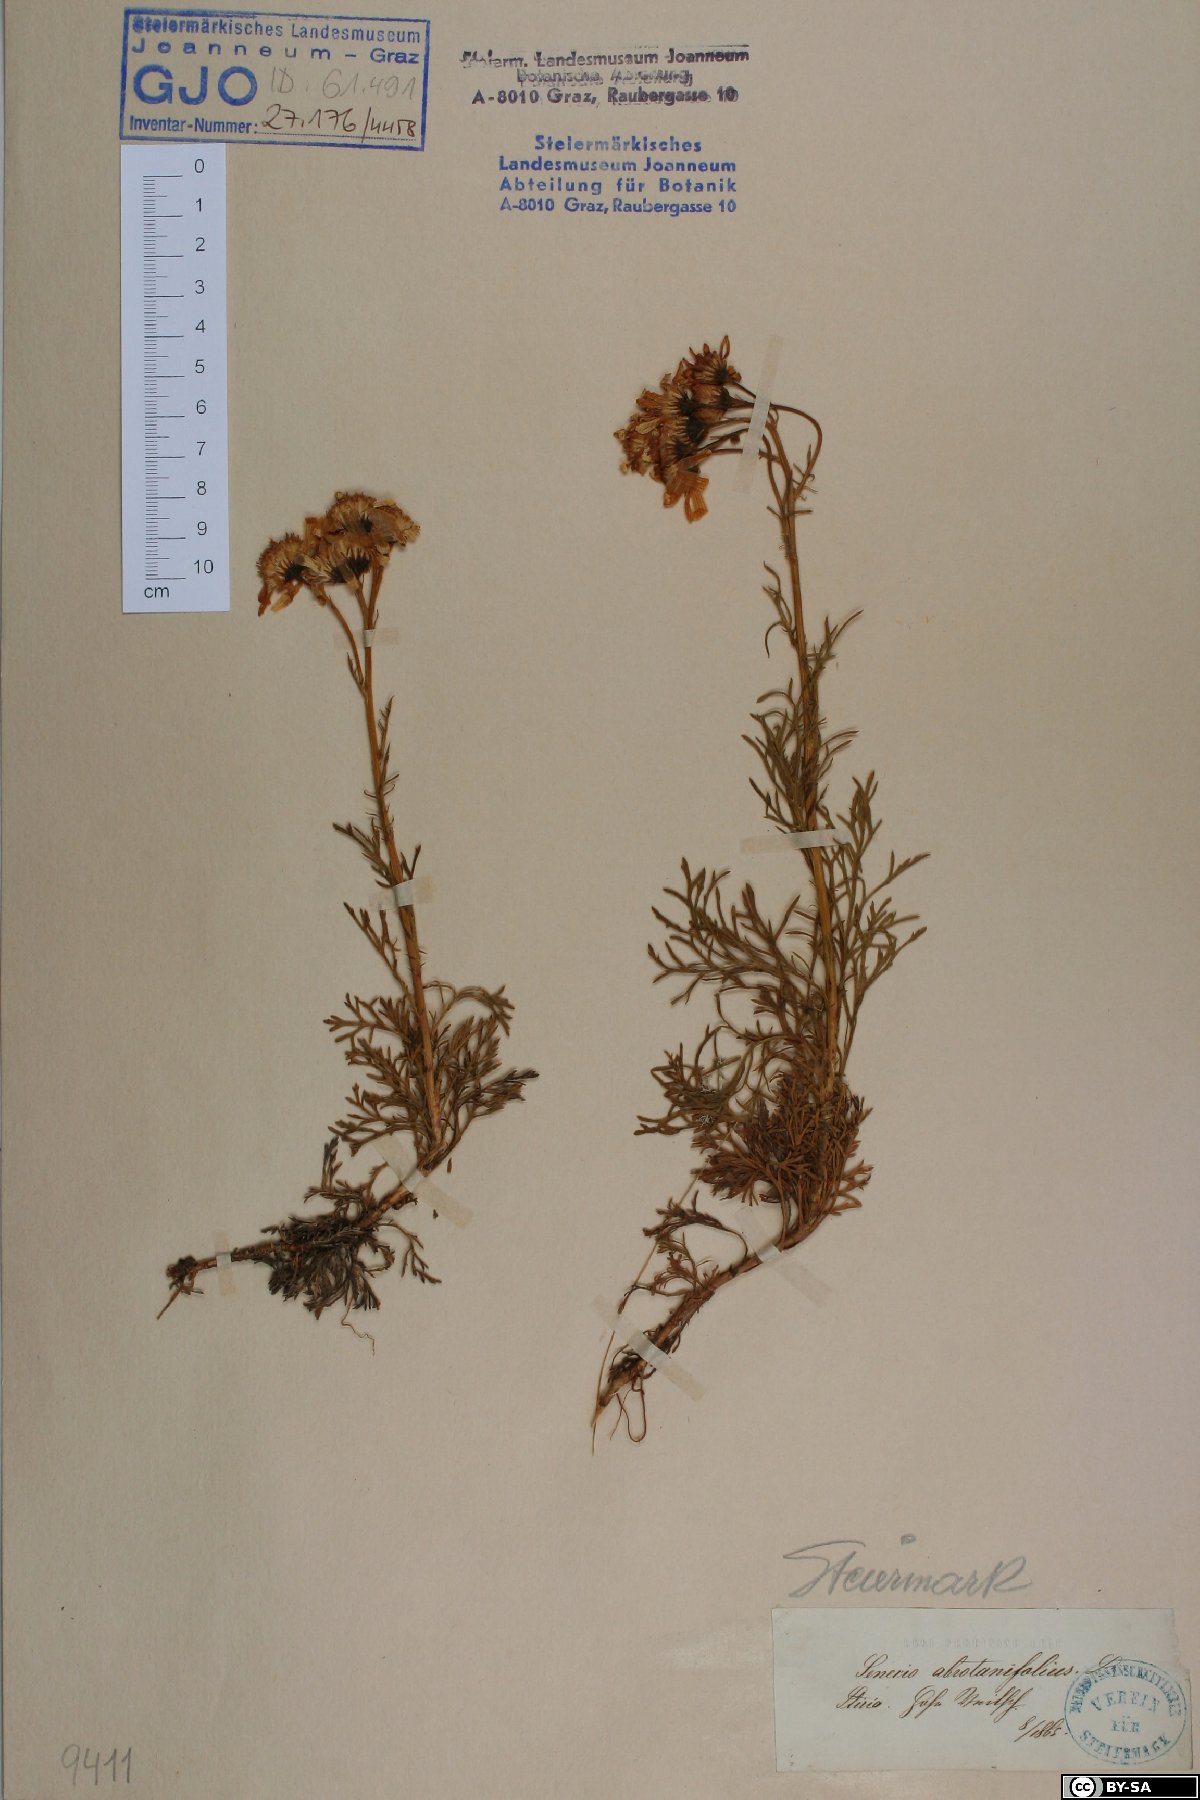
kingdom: Plantae
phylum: Tracheophyta
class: Magnoliopsida
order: Asterales
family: Asteraceae
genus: Jacobaea
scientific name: Jacobaea abrotanifolia
